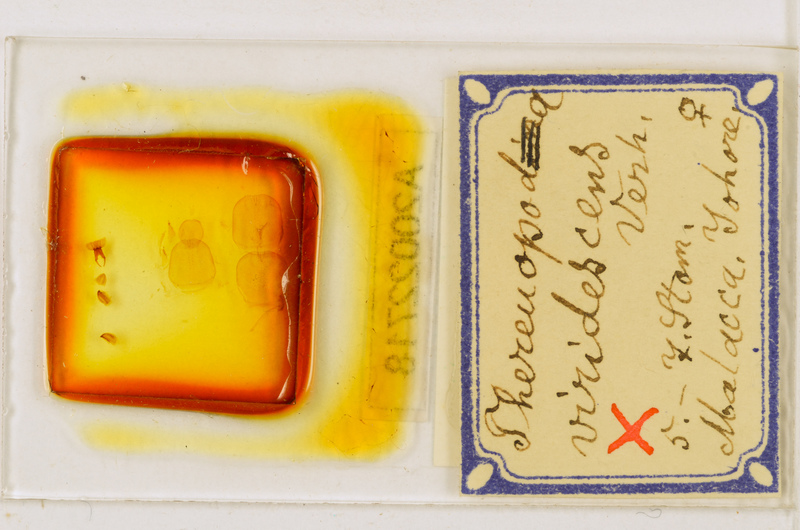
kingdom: Animalia
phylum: Arthropoda
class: Chilopoda
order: Scutigeromorpha
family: Scutigeridae
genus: Thereuopoda
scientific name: Thereuopoda longicornis
